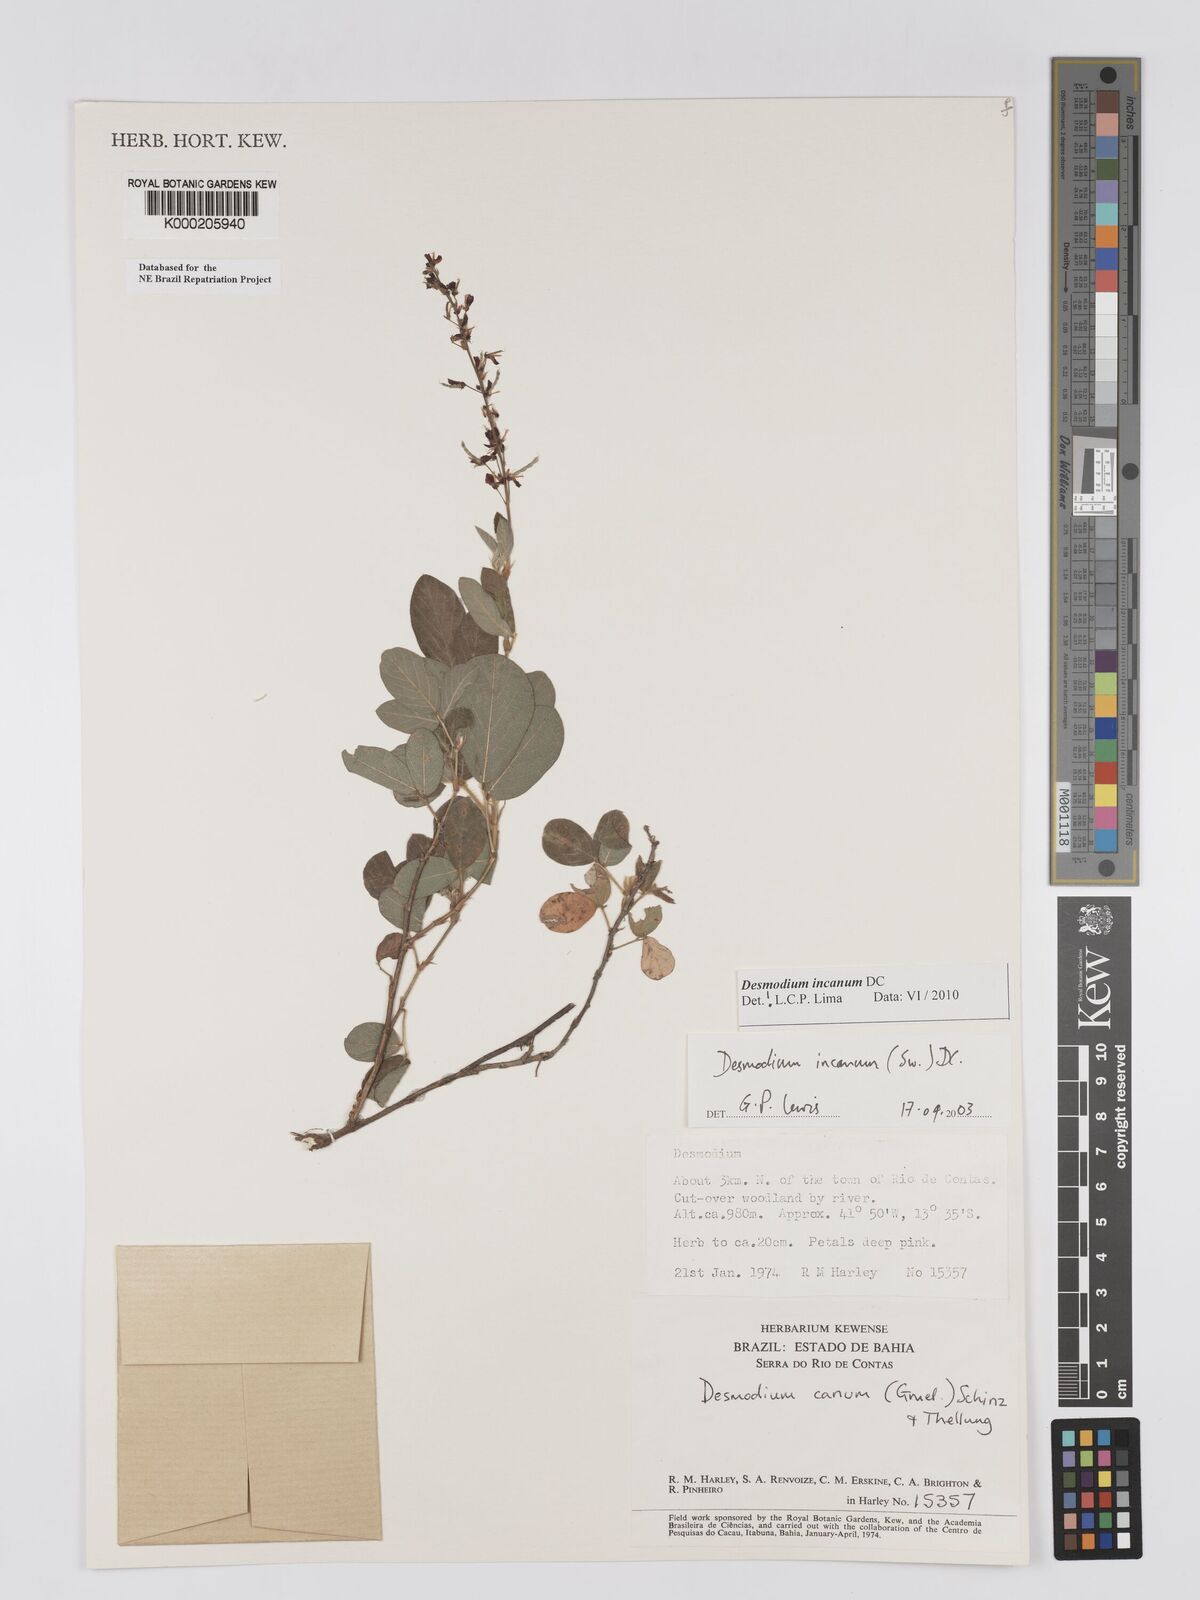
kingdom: Plantae
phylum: Tracheophyta
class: Magnoliopsida
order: Fabales
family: Fabaceae
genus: Desmodium
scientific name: Desmodium incanum
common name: Tickclover
